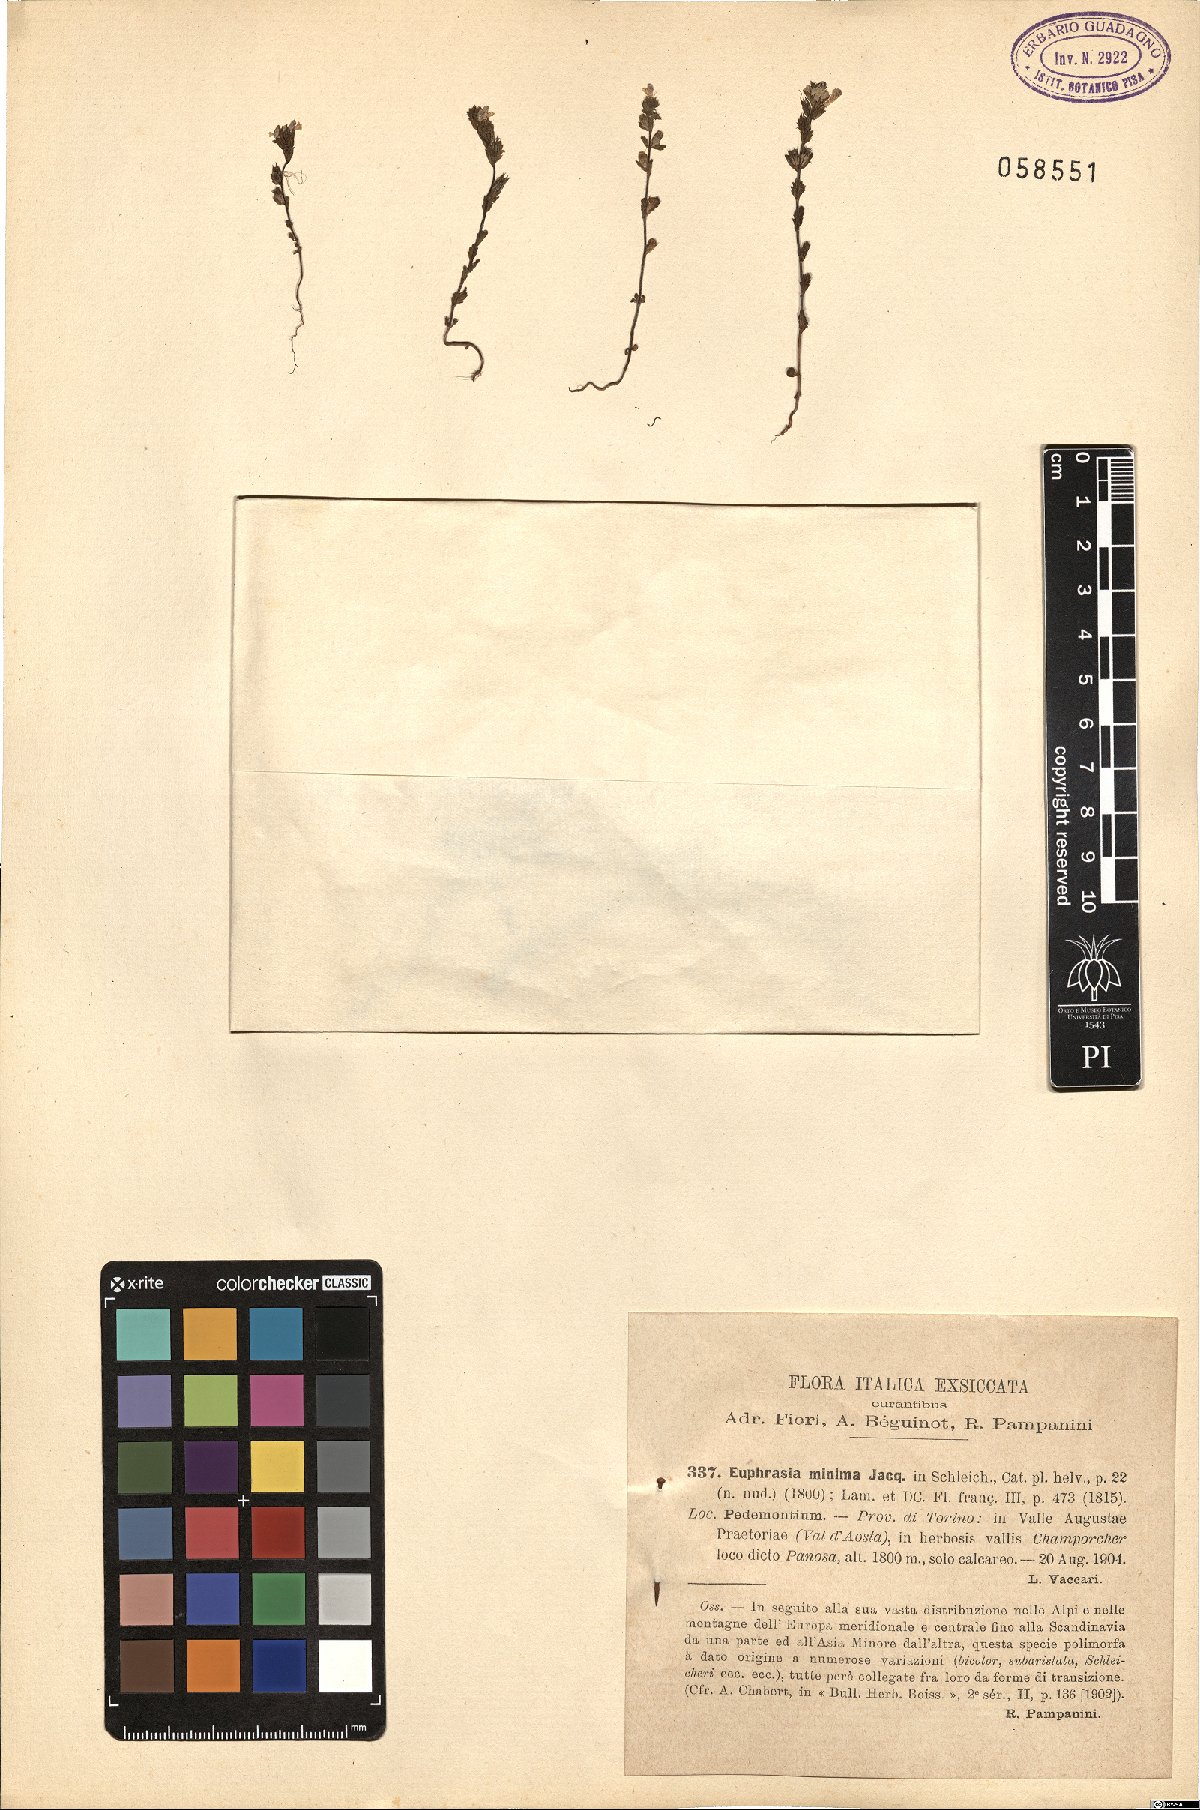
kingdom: Plantae
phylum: Tracheophyta
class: Magnoliopsida
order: Lamiales
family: Orobanchaceae
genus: Euphrasia
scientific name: Euphrasia minima
